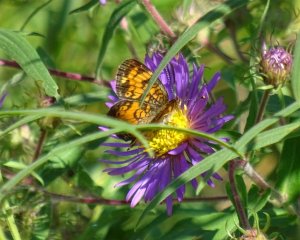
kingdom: Animalia
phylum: Arthropoda
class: Insecta
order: Lepidoptera
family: Nymphalidae
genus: Phyciodes
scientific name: Phyciodes tharos
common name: Northern Crescent
